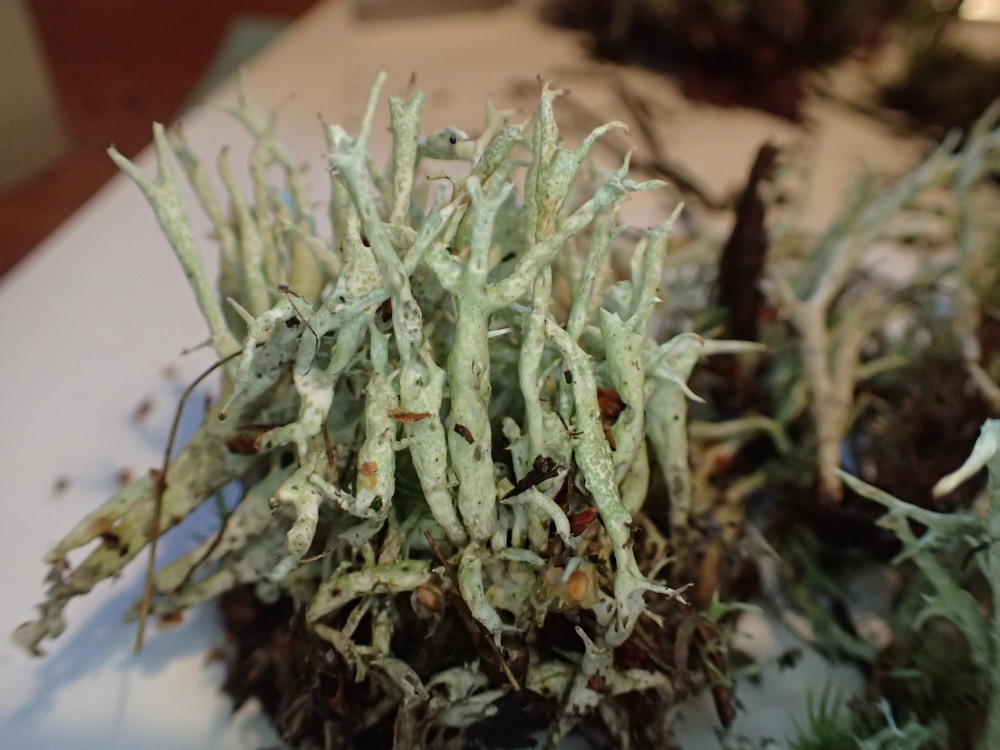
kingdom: Fungi
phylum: Ascomycota
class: Lecanoromycetes
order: Lecanorales
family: Cladoniaceae
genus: Cladonia
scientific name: Cladonia uncialis
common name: Thorn lichen
